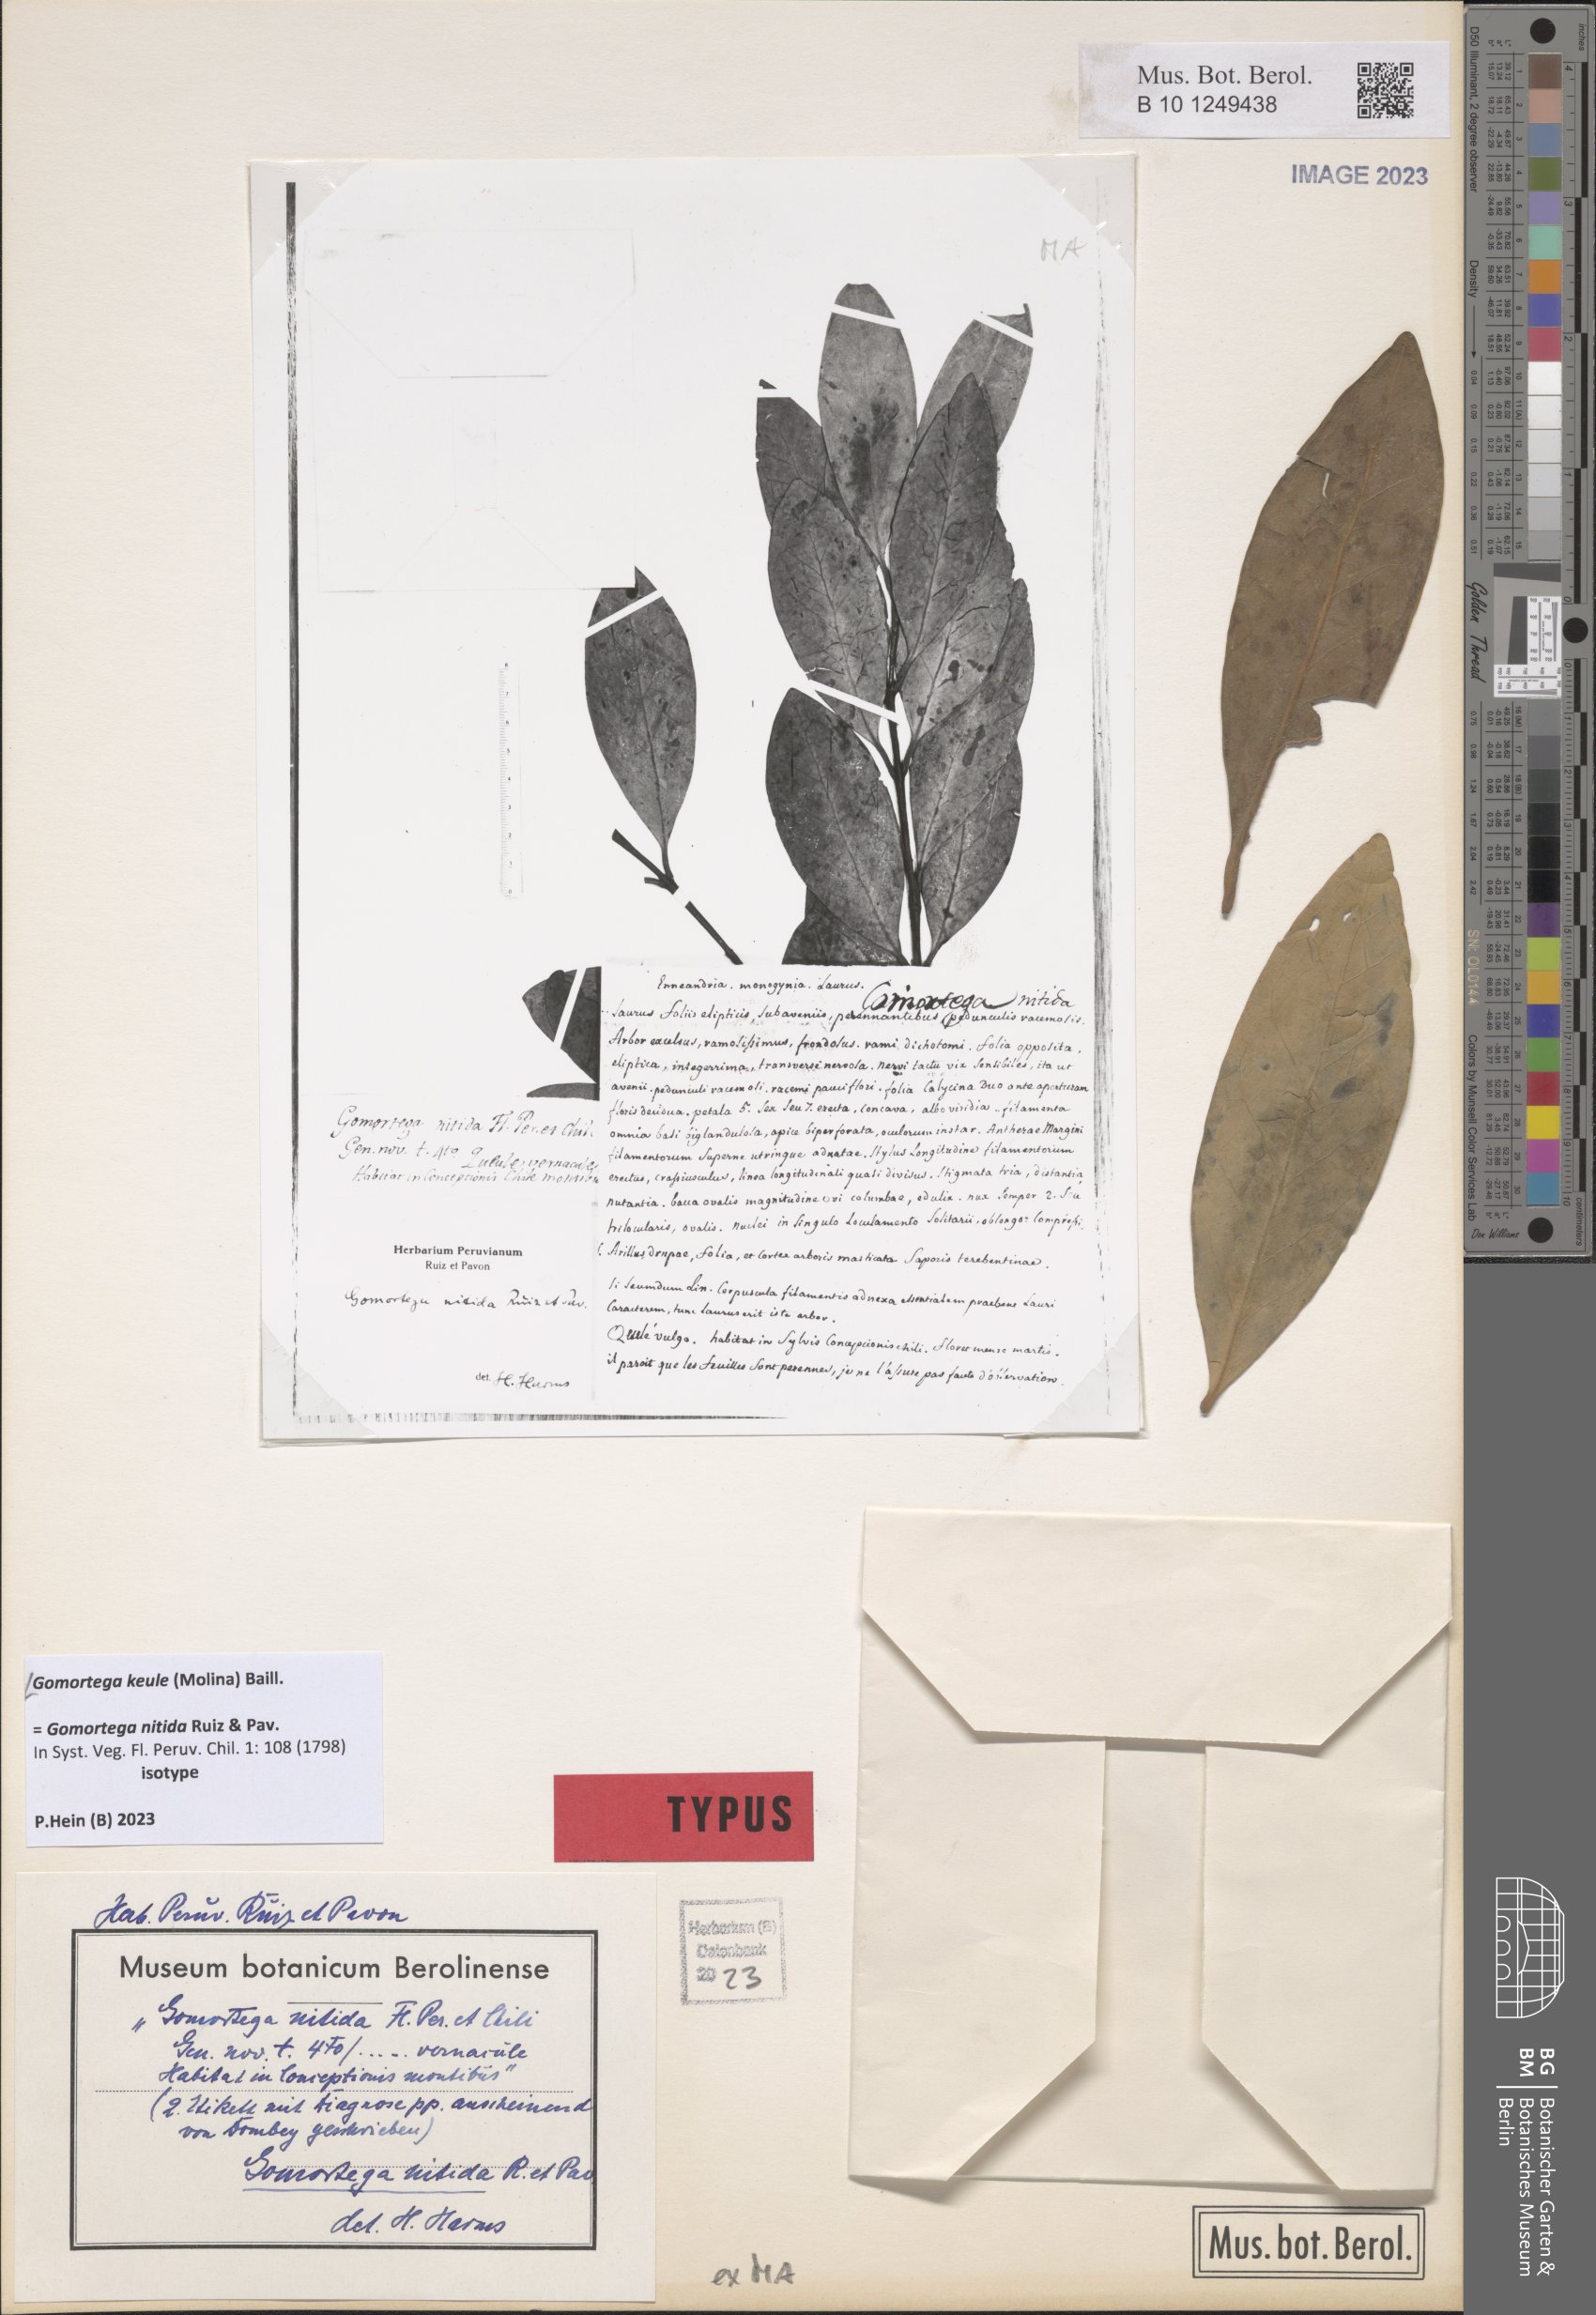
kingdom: Plantae
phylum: Tracheophyta
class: Magnoliopsida
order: Laurales
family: Gomortegaceae
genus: Gomortega
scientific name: Gomortega keule
